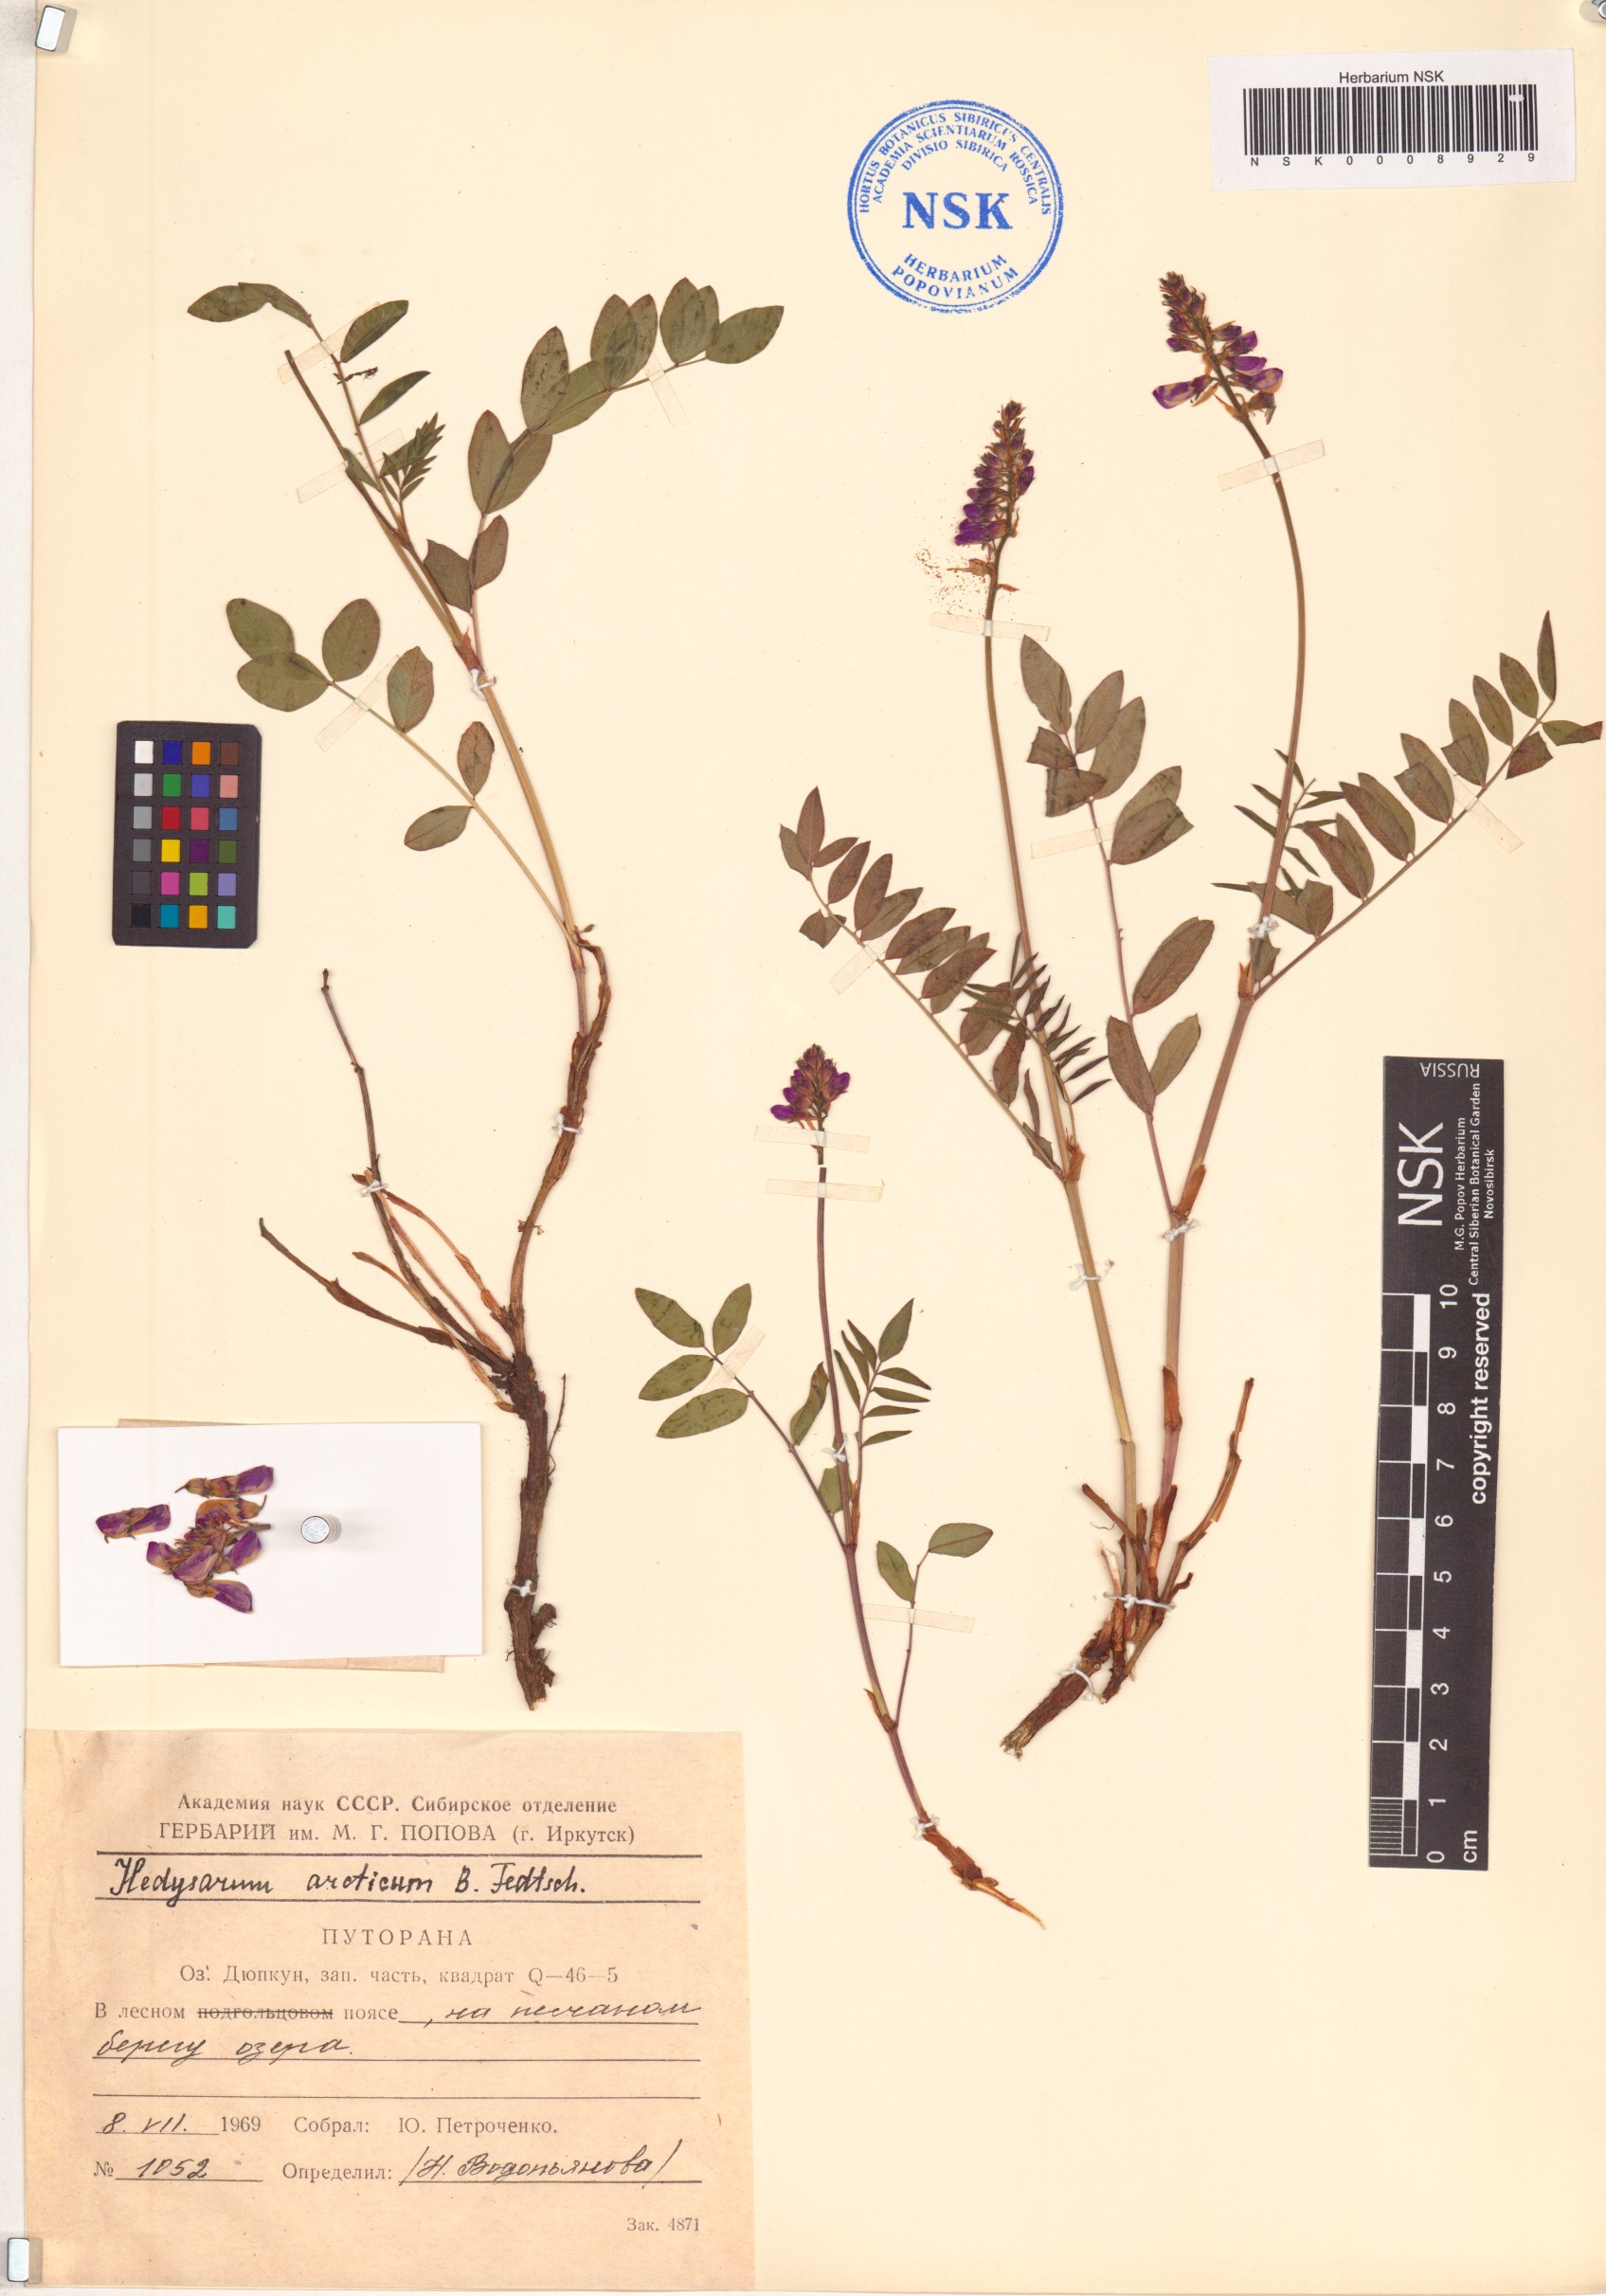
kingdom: Plantae
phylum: Tracheophyta
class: Magnoliopsida
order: Fabales
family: Fabaceae
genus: Hedysarum
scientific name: Hedysarum hedysaroides
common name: Alpine french-honeysuckle
